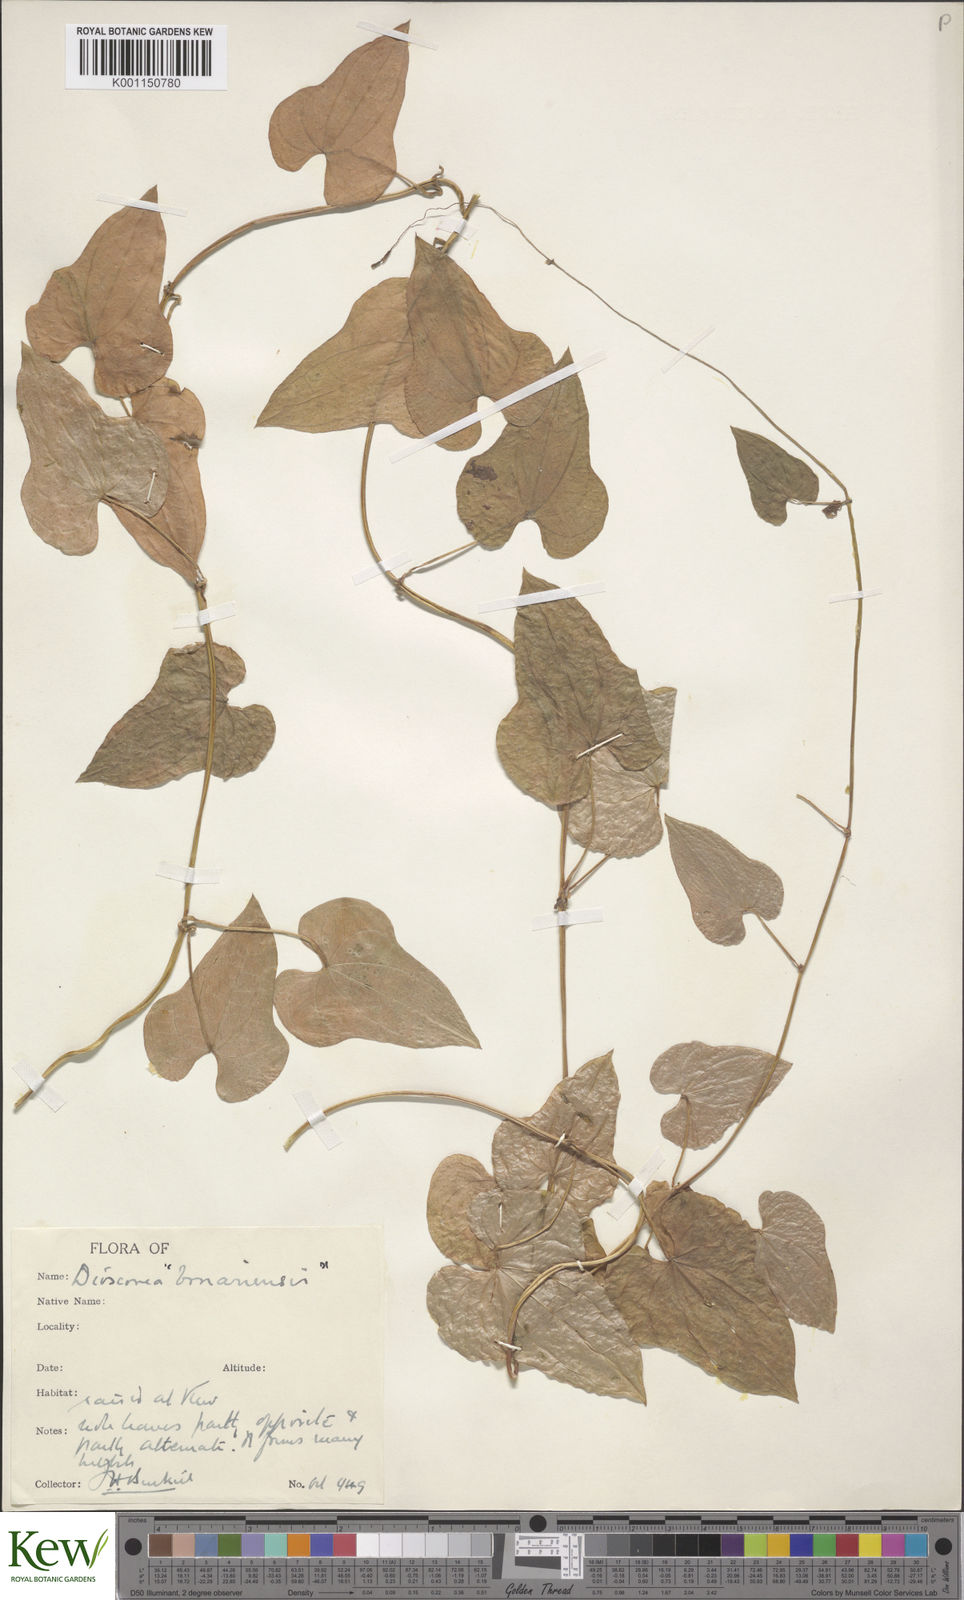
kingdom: Plantae
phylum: Tracheophyta
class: Liliopsida
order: Dioscoreales
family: Dioscoreaceae
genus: Dioscorea
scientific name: Dioscorea sinuata
